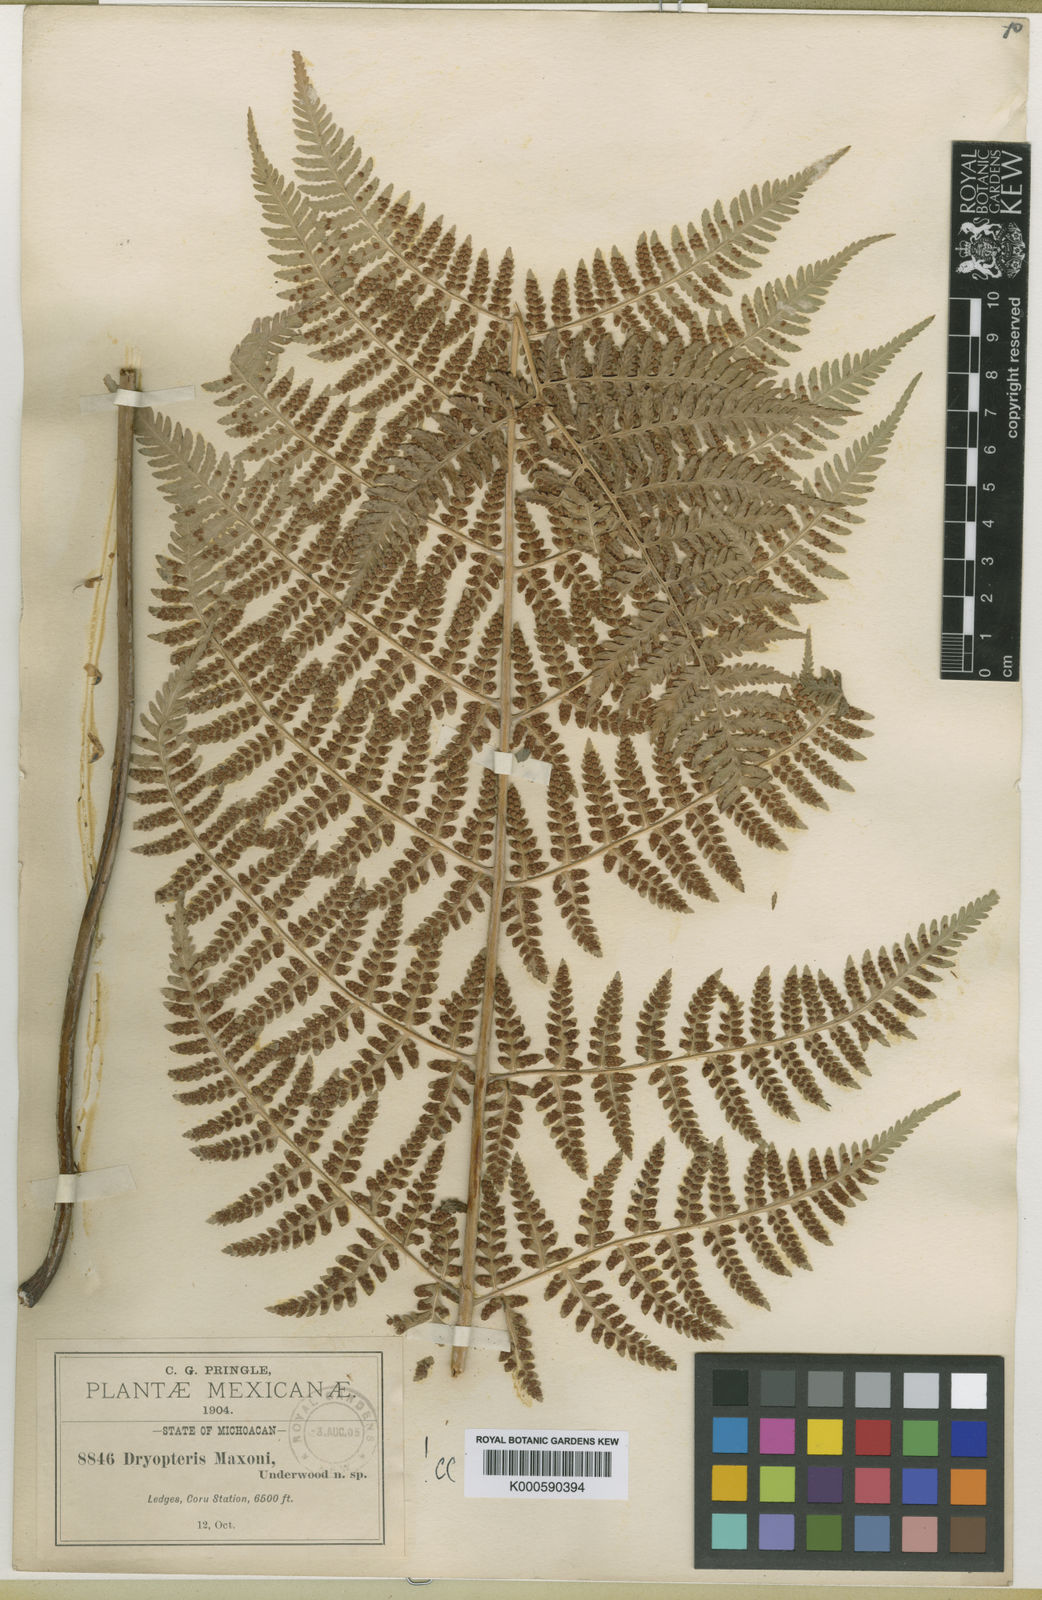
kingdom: Plantae
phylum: Tracheophyta
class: Polypodiopsida
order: Polypodiales
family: Dryopteridaceae
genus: Dryopteris
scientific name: Dryopteris cinnamomea
